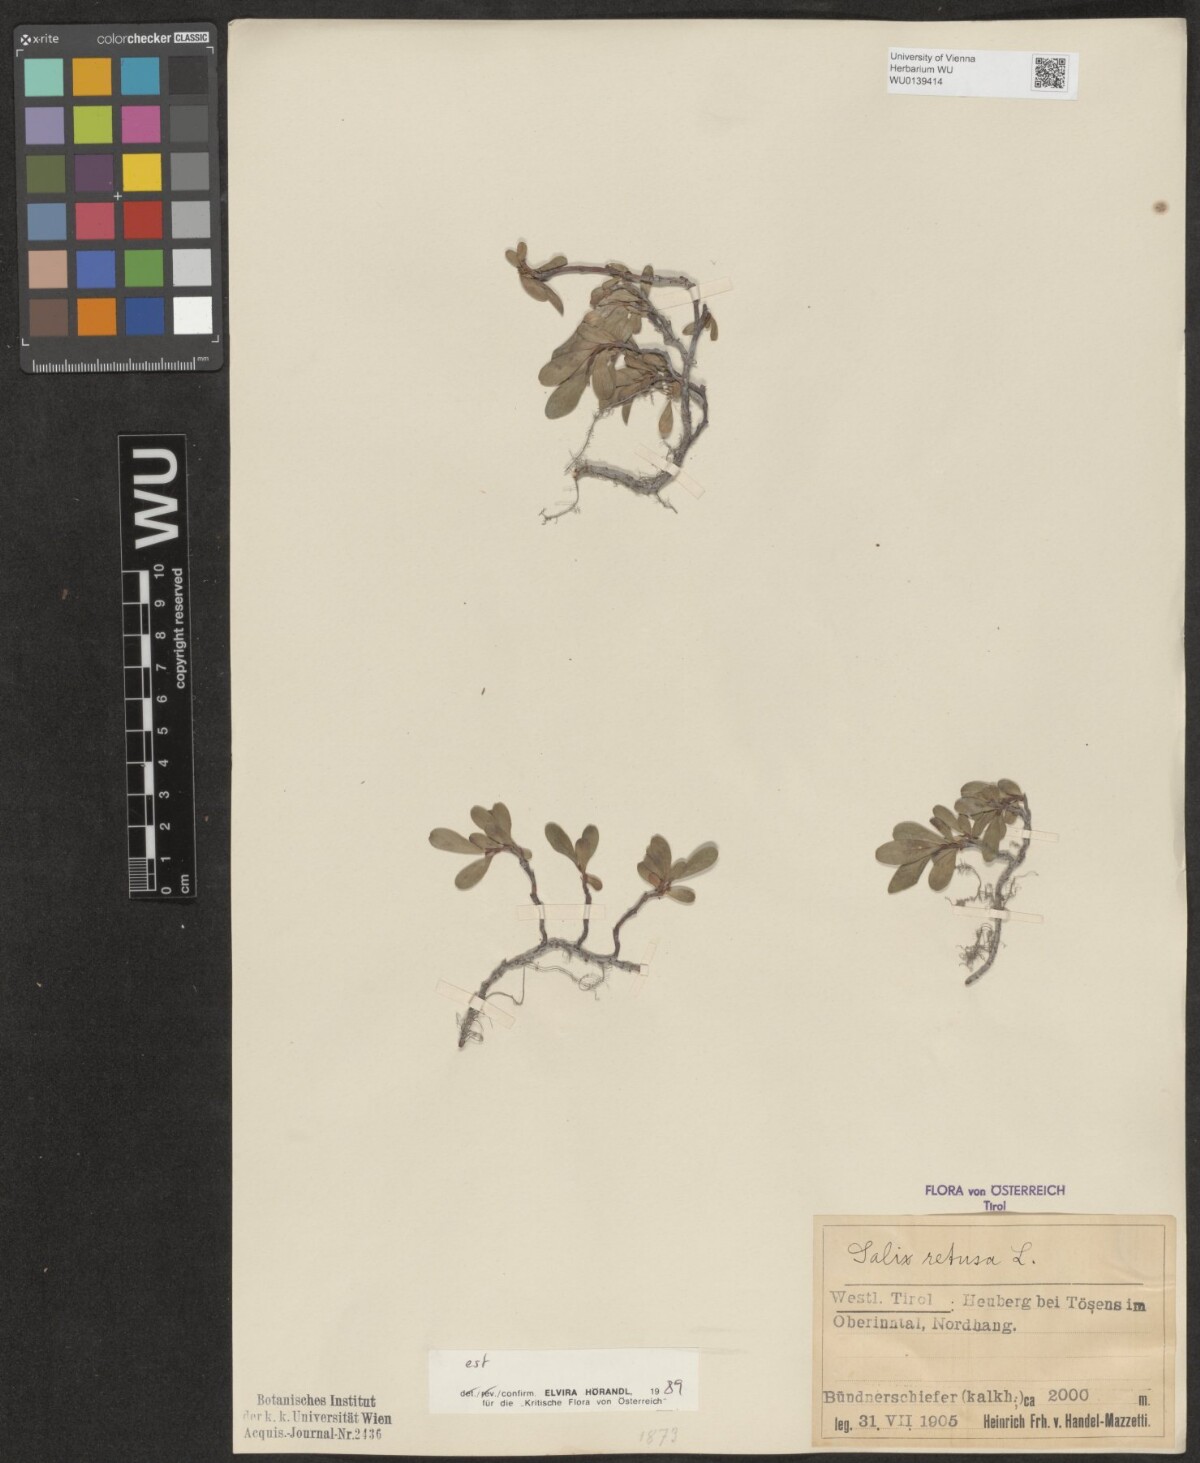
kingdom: Plantae
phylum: Tracheophyta
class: Magnoliopsida
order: Malpighiales
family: Salicaceae
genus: Salix
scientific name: Salix retusa
